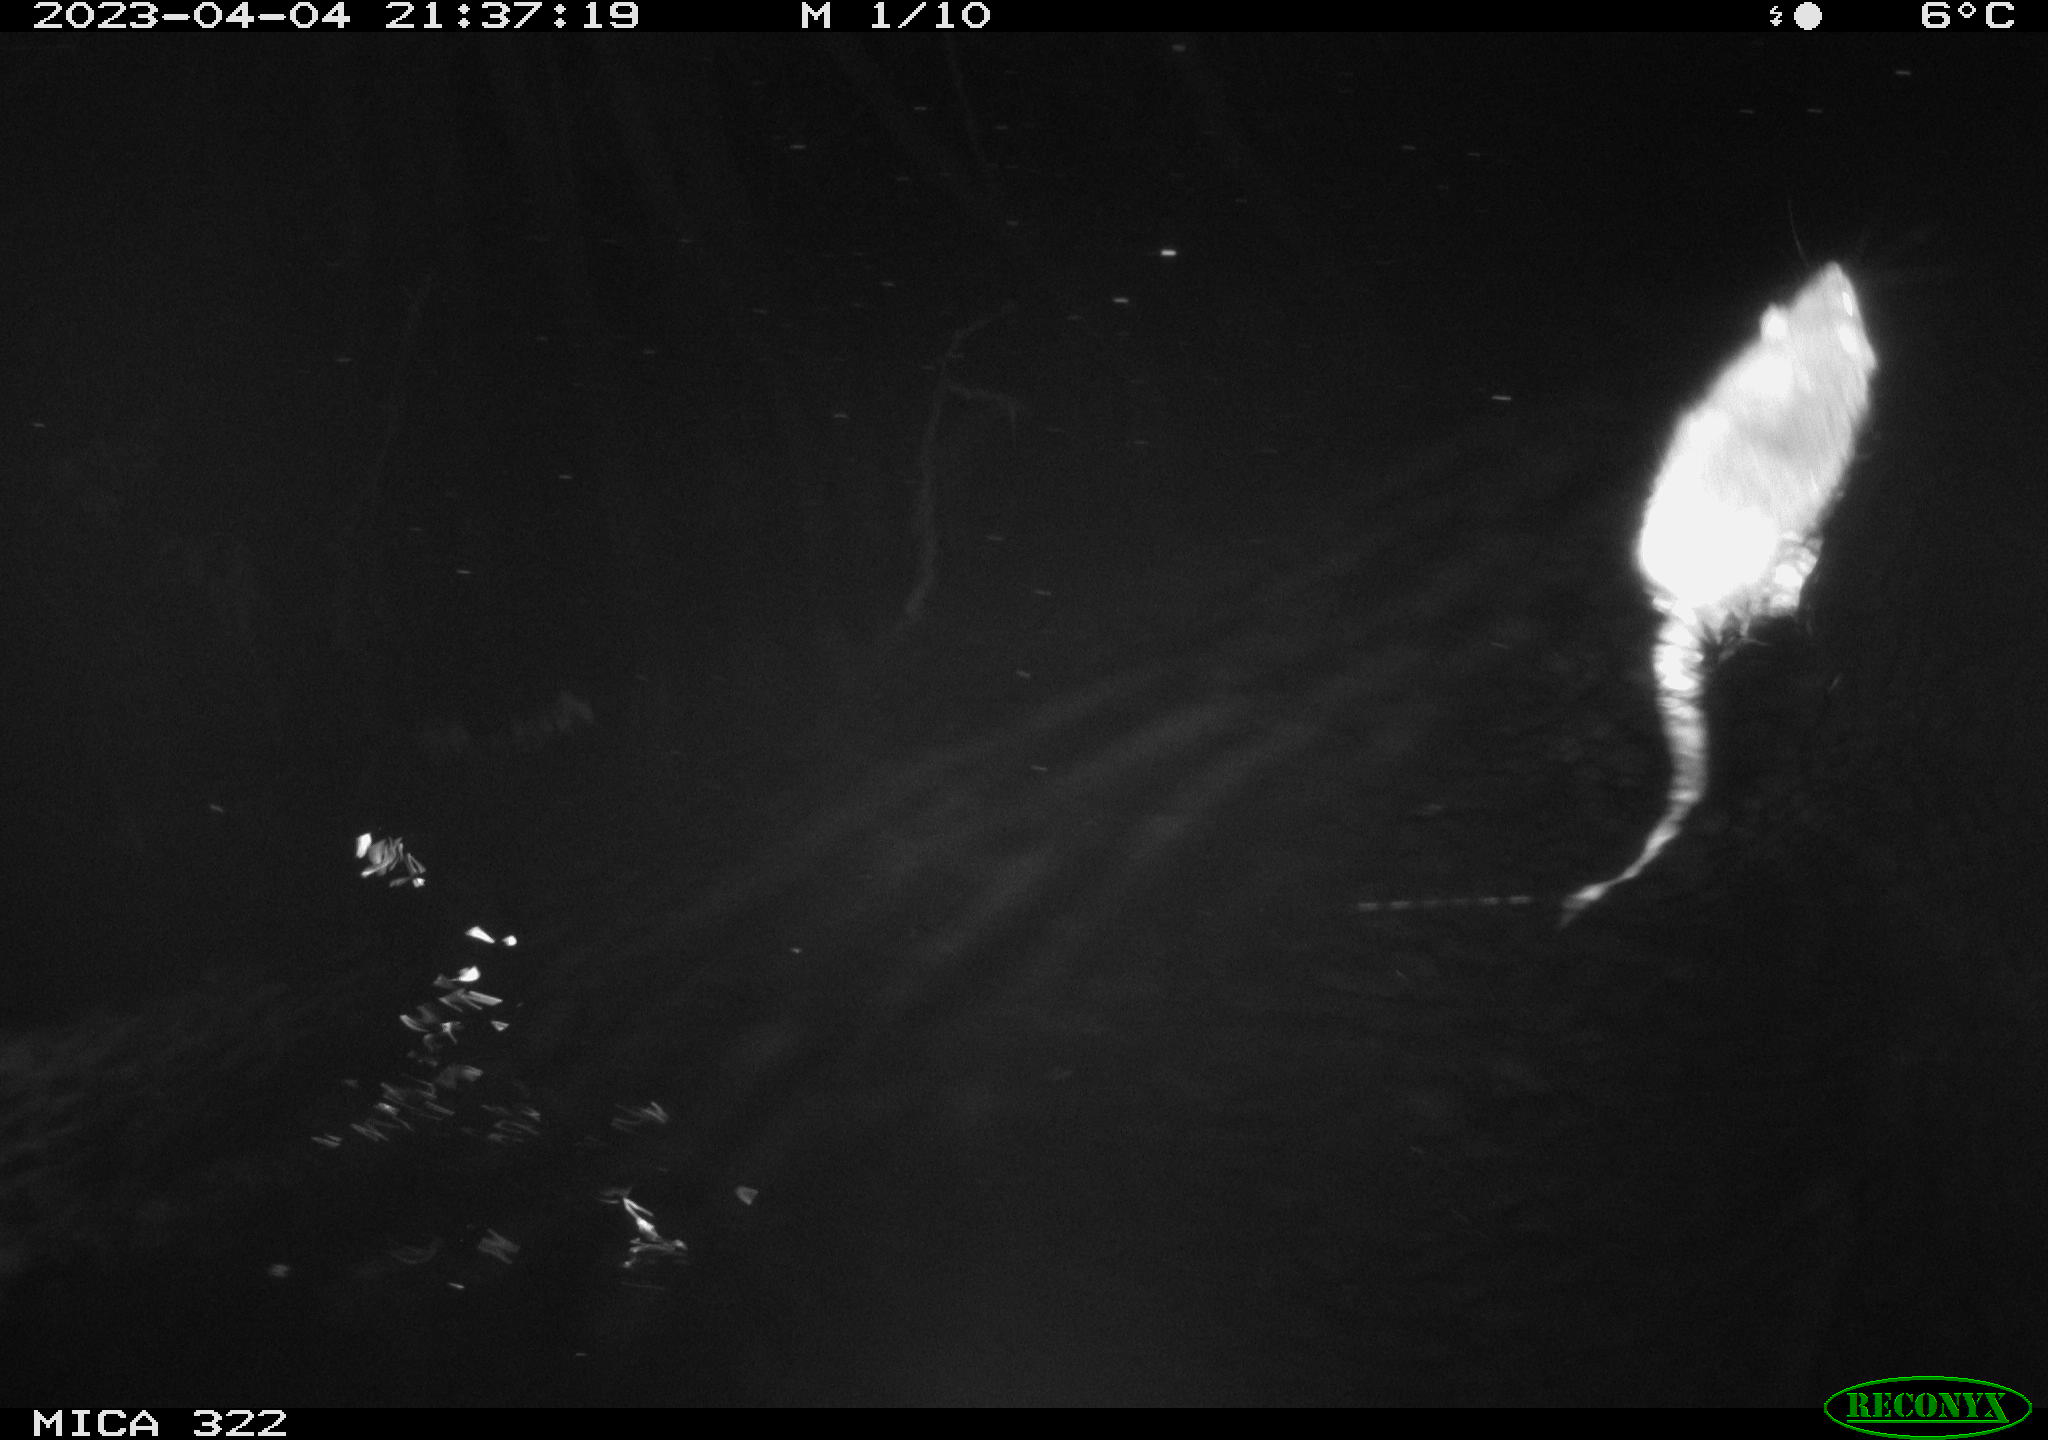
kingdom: Animalia
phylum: Chordata
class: Mammalia
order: Rodentia
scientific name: Rodentia
